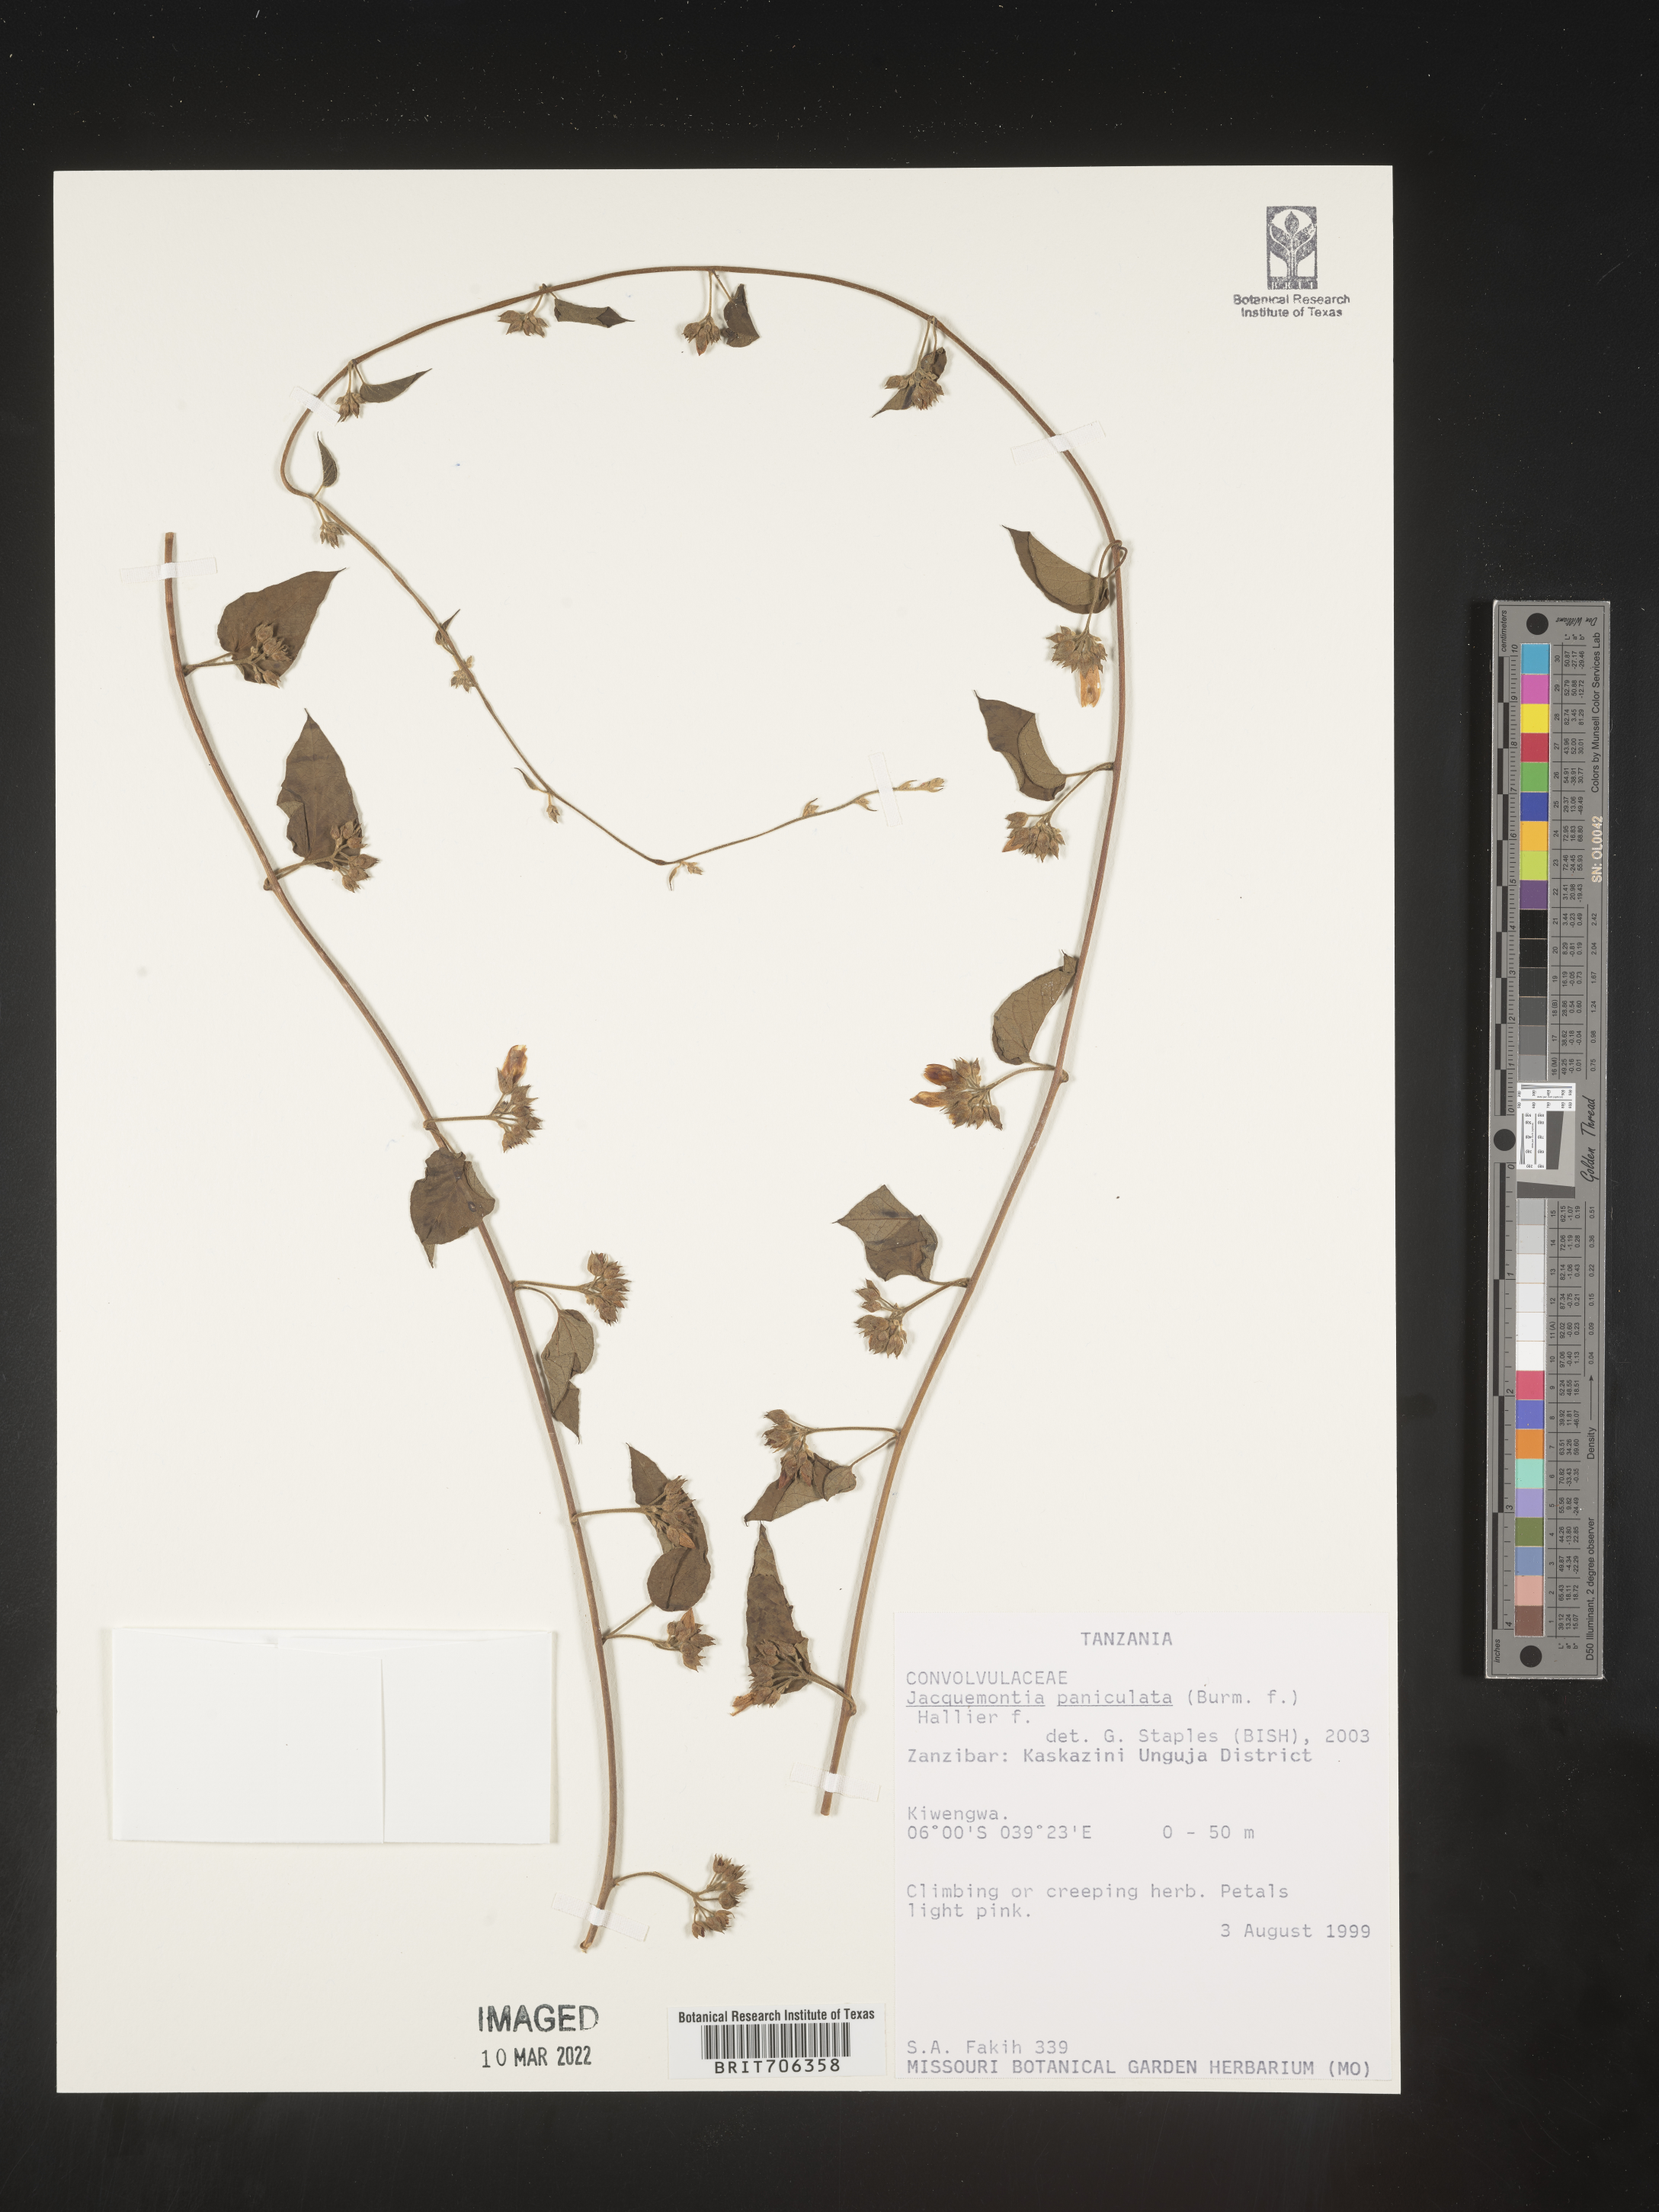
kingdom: Plantae
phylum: Tracheophyta
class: Magnoliopsida
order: Solanales
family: Convolvulaceae
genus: Jacquemontia
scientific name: Jacquemontia
